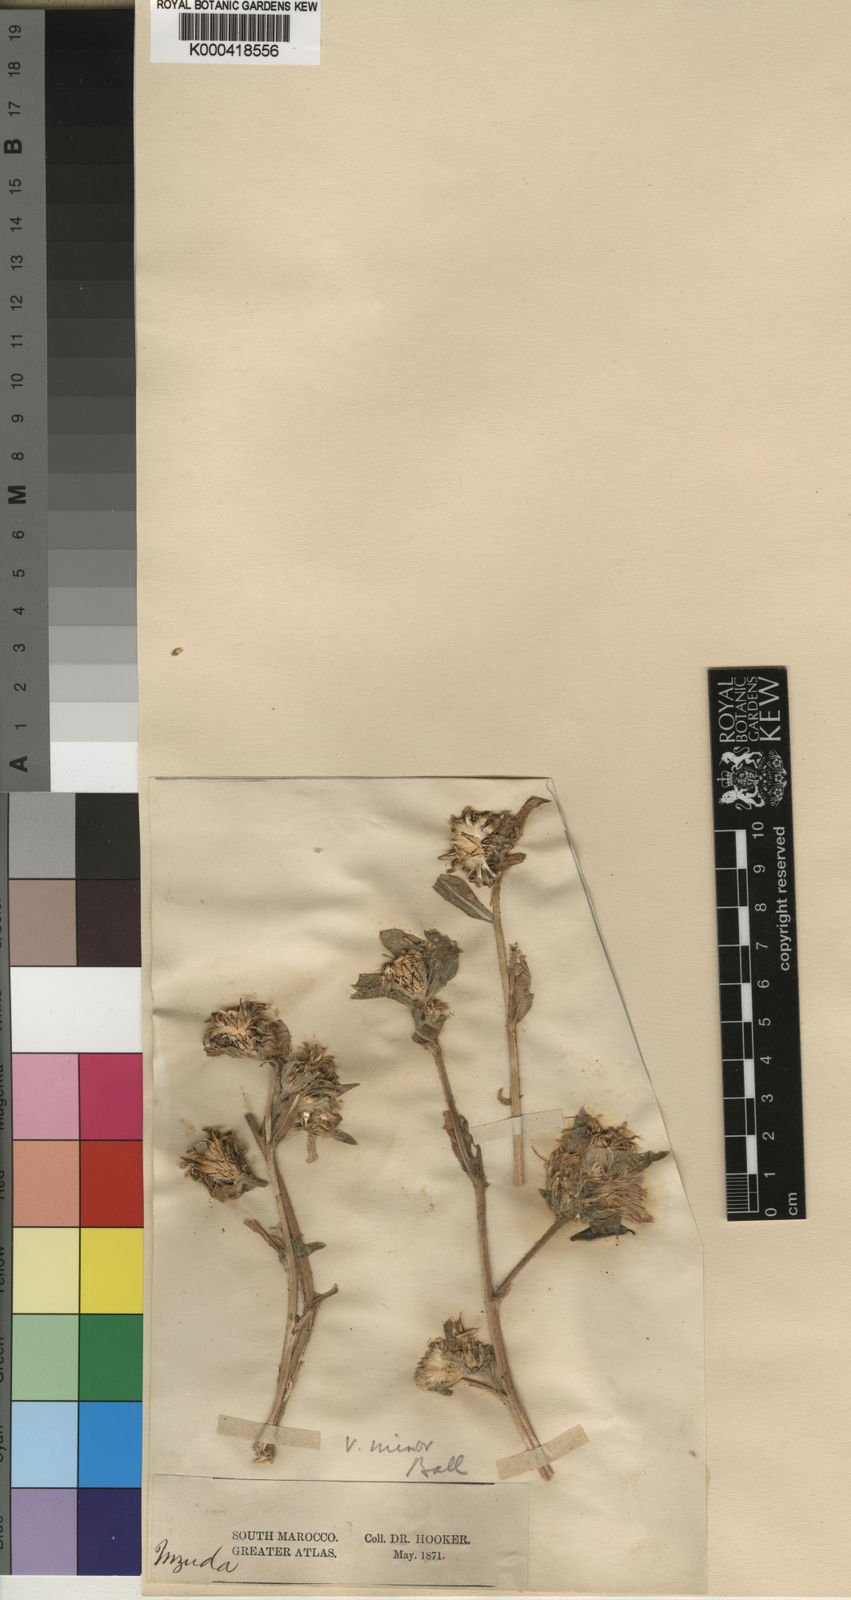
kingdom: Plantae
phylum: Tracheophyta
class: Magnoliopsida
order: Asterales
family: Asteraceae
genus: Centaurea
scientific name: Centaurea pullata
